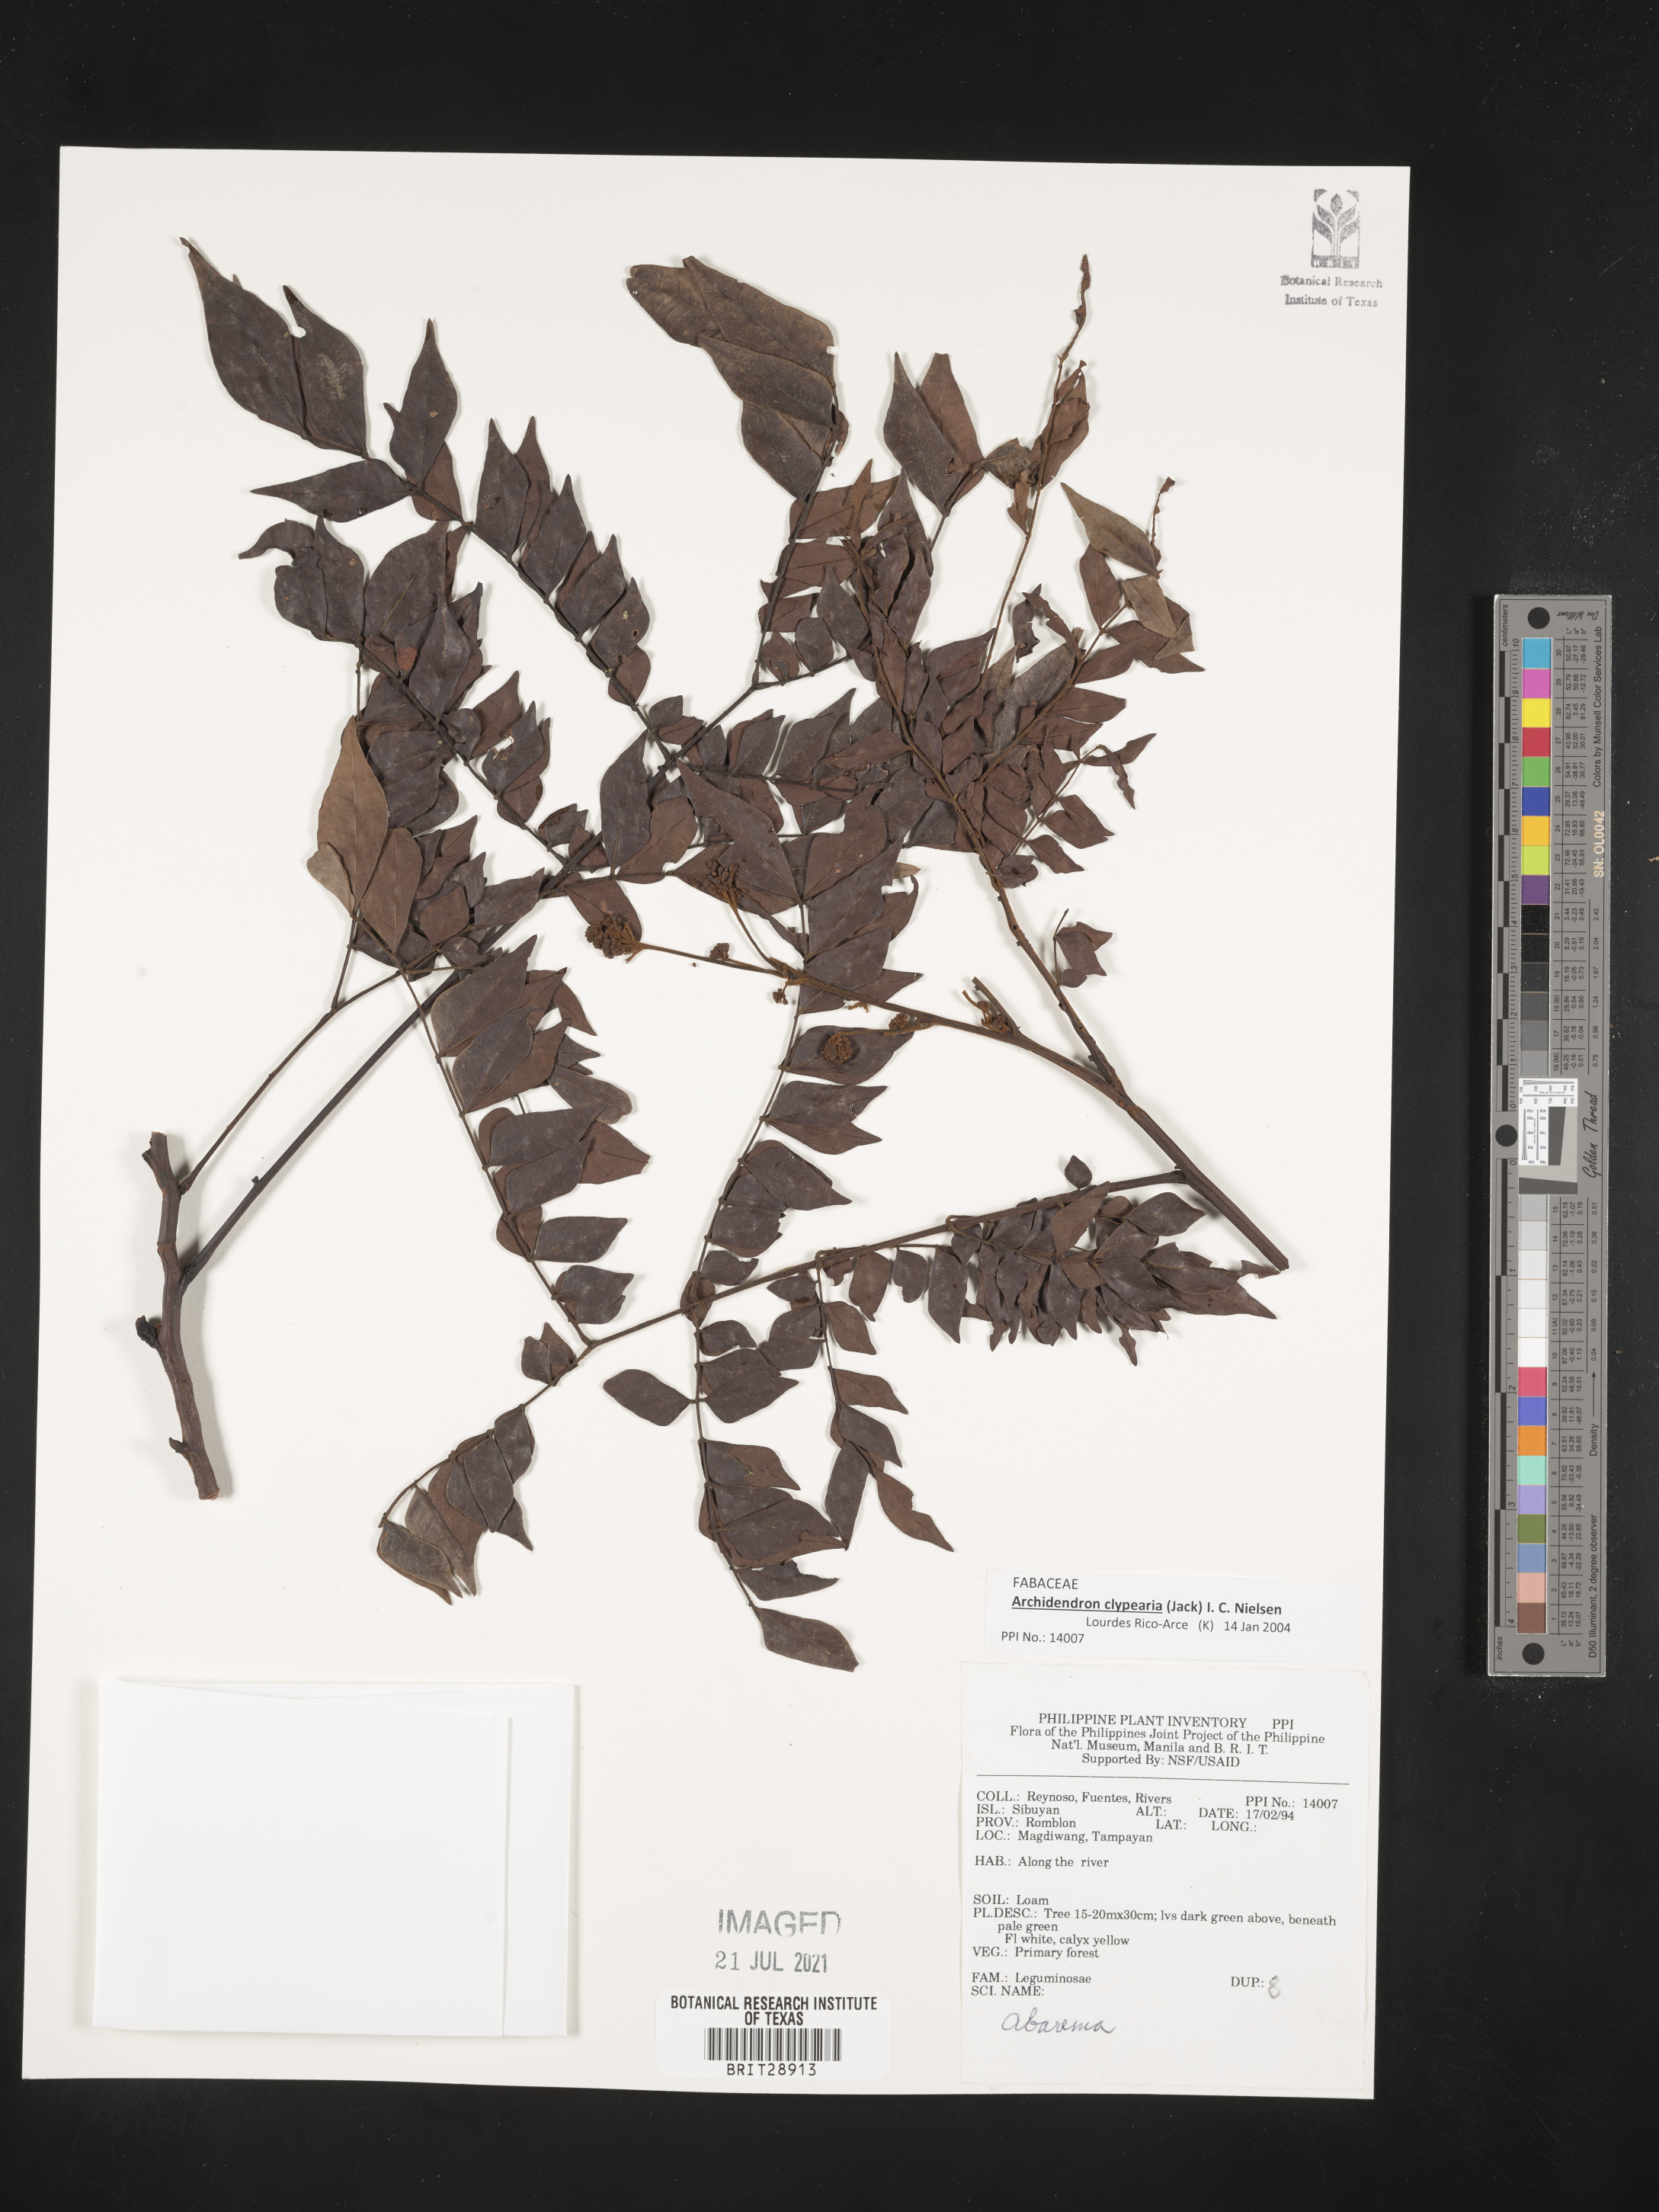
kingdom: Plantae
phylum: Tracheophyta
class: Magnoliopsida
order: Fabales
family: Fabaceae
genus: Archidendron
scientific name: Archidendron clypearia
